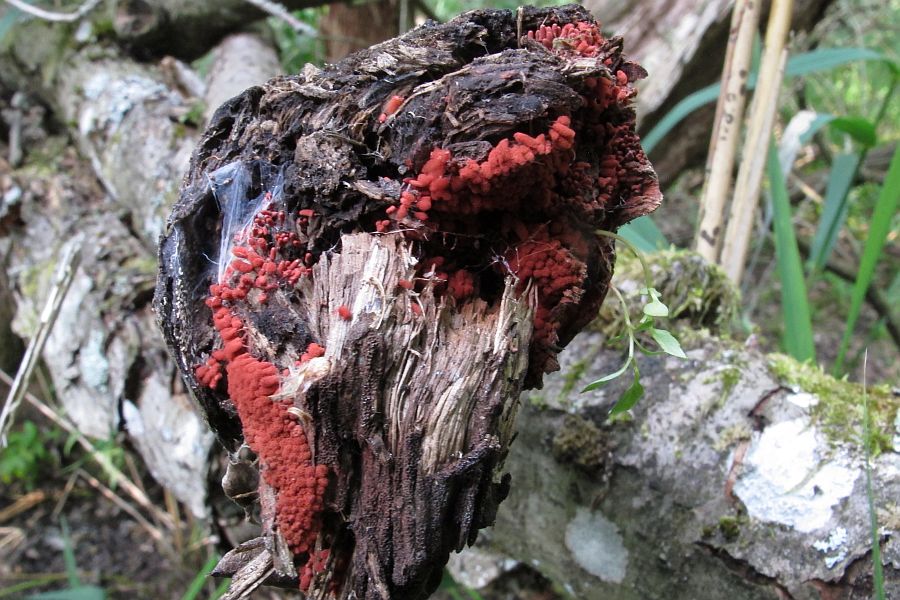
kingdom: Protozoa
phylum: Mycetozoa
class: Myxomycetes
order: Trichiales
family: Arcyriaceae
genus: Arcyria
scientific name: Arcyria denudata
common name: karminrød skålsvøb
